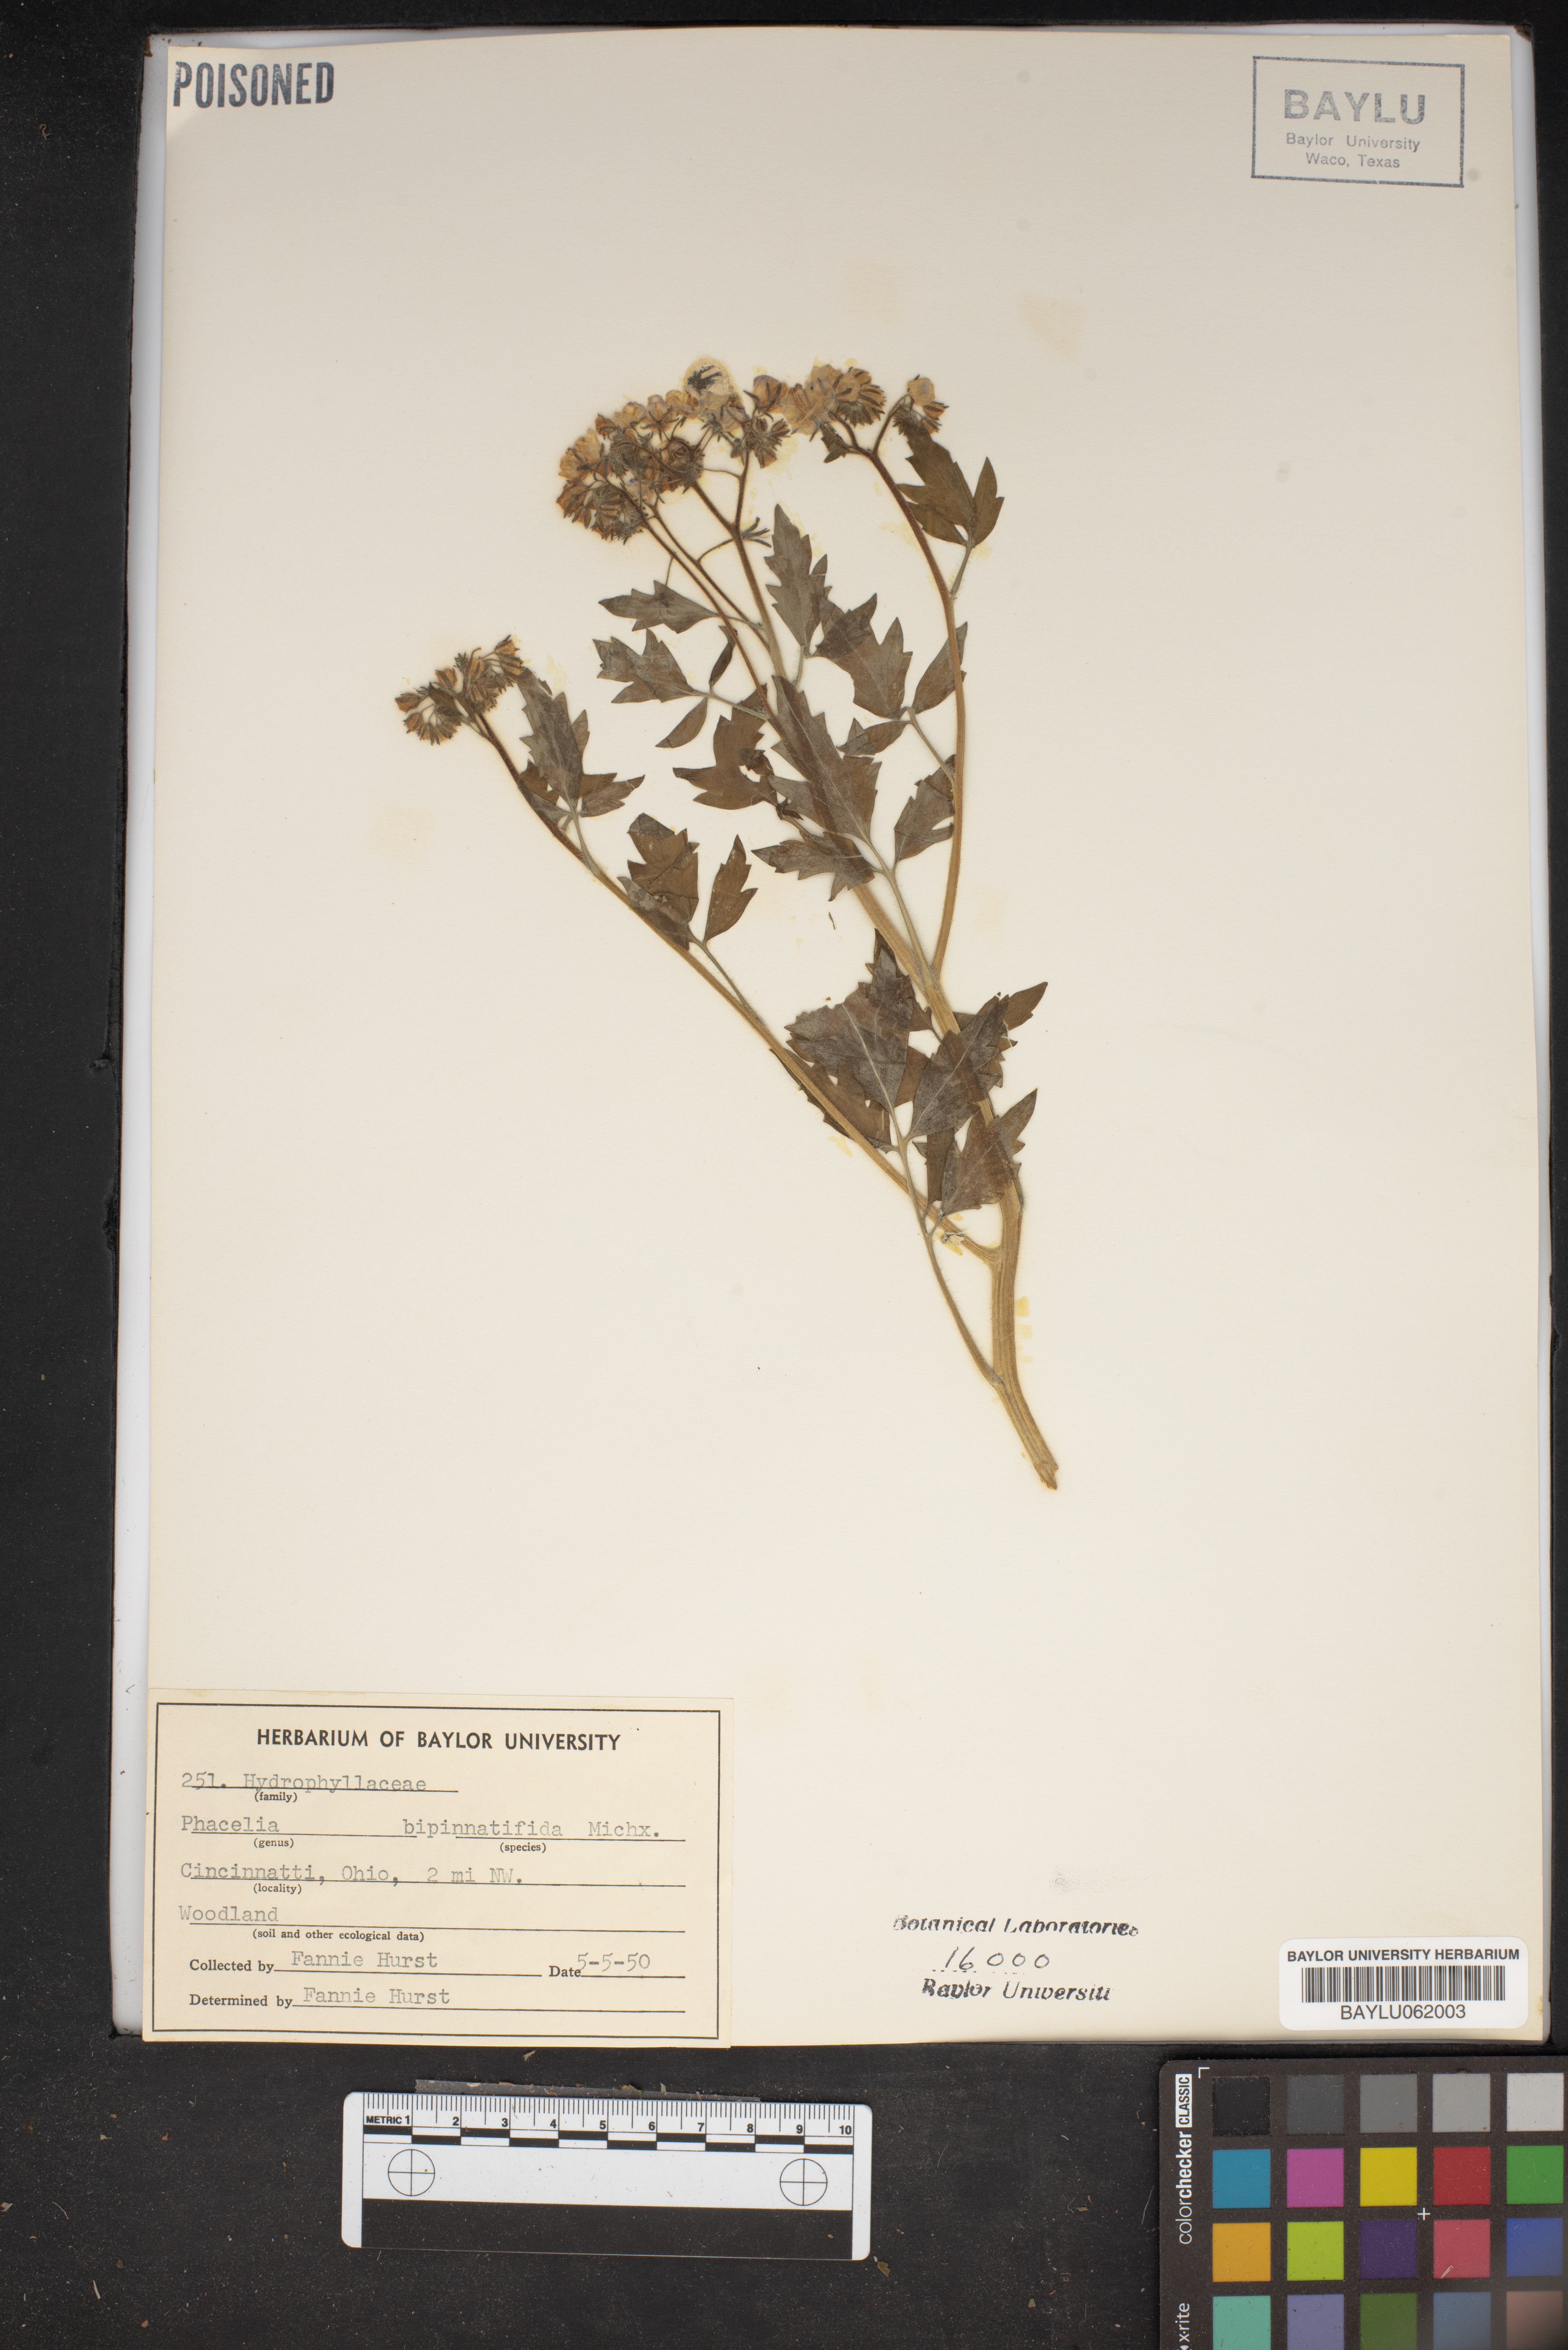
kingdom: Plantae
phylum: Tracheophyta
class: Magnoliopsida
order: Boraginales
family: Hydrophyllaceae
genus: Phacelia
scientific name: Phacelia bipinnatifida
